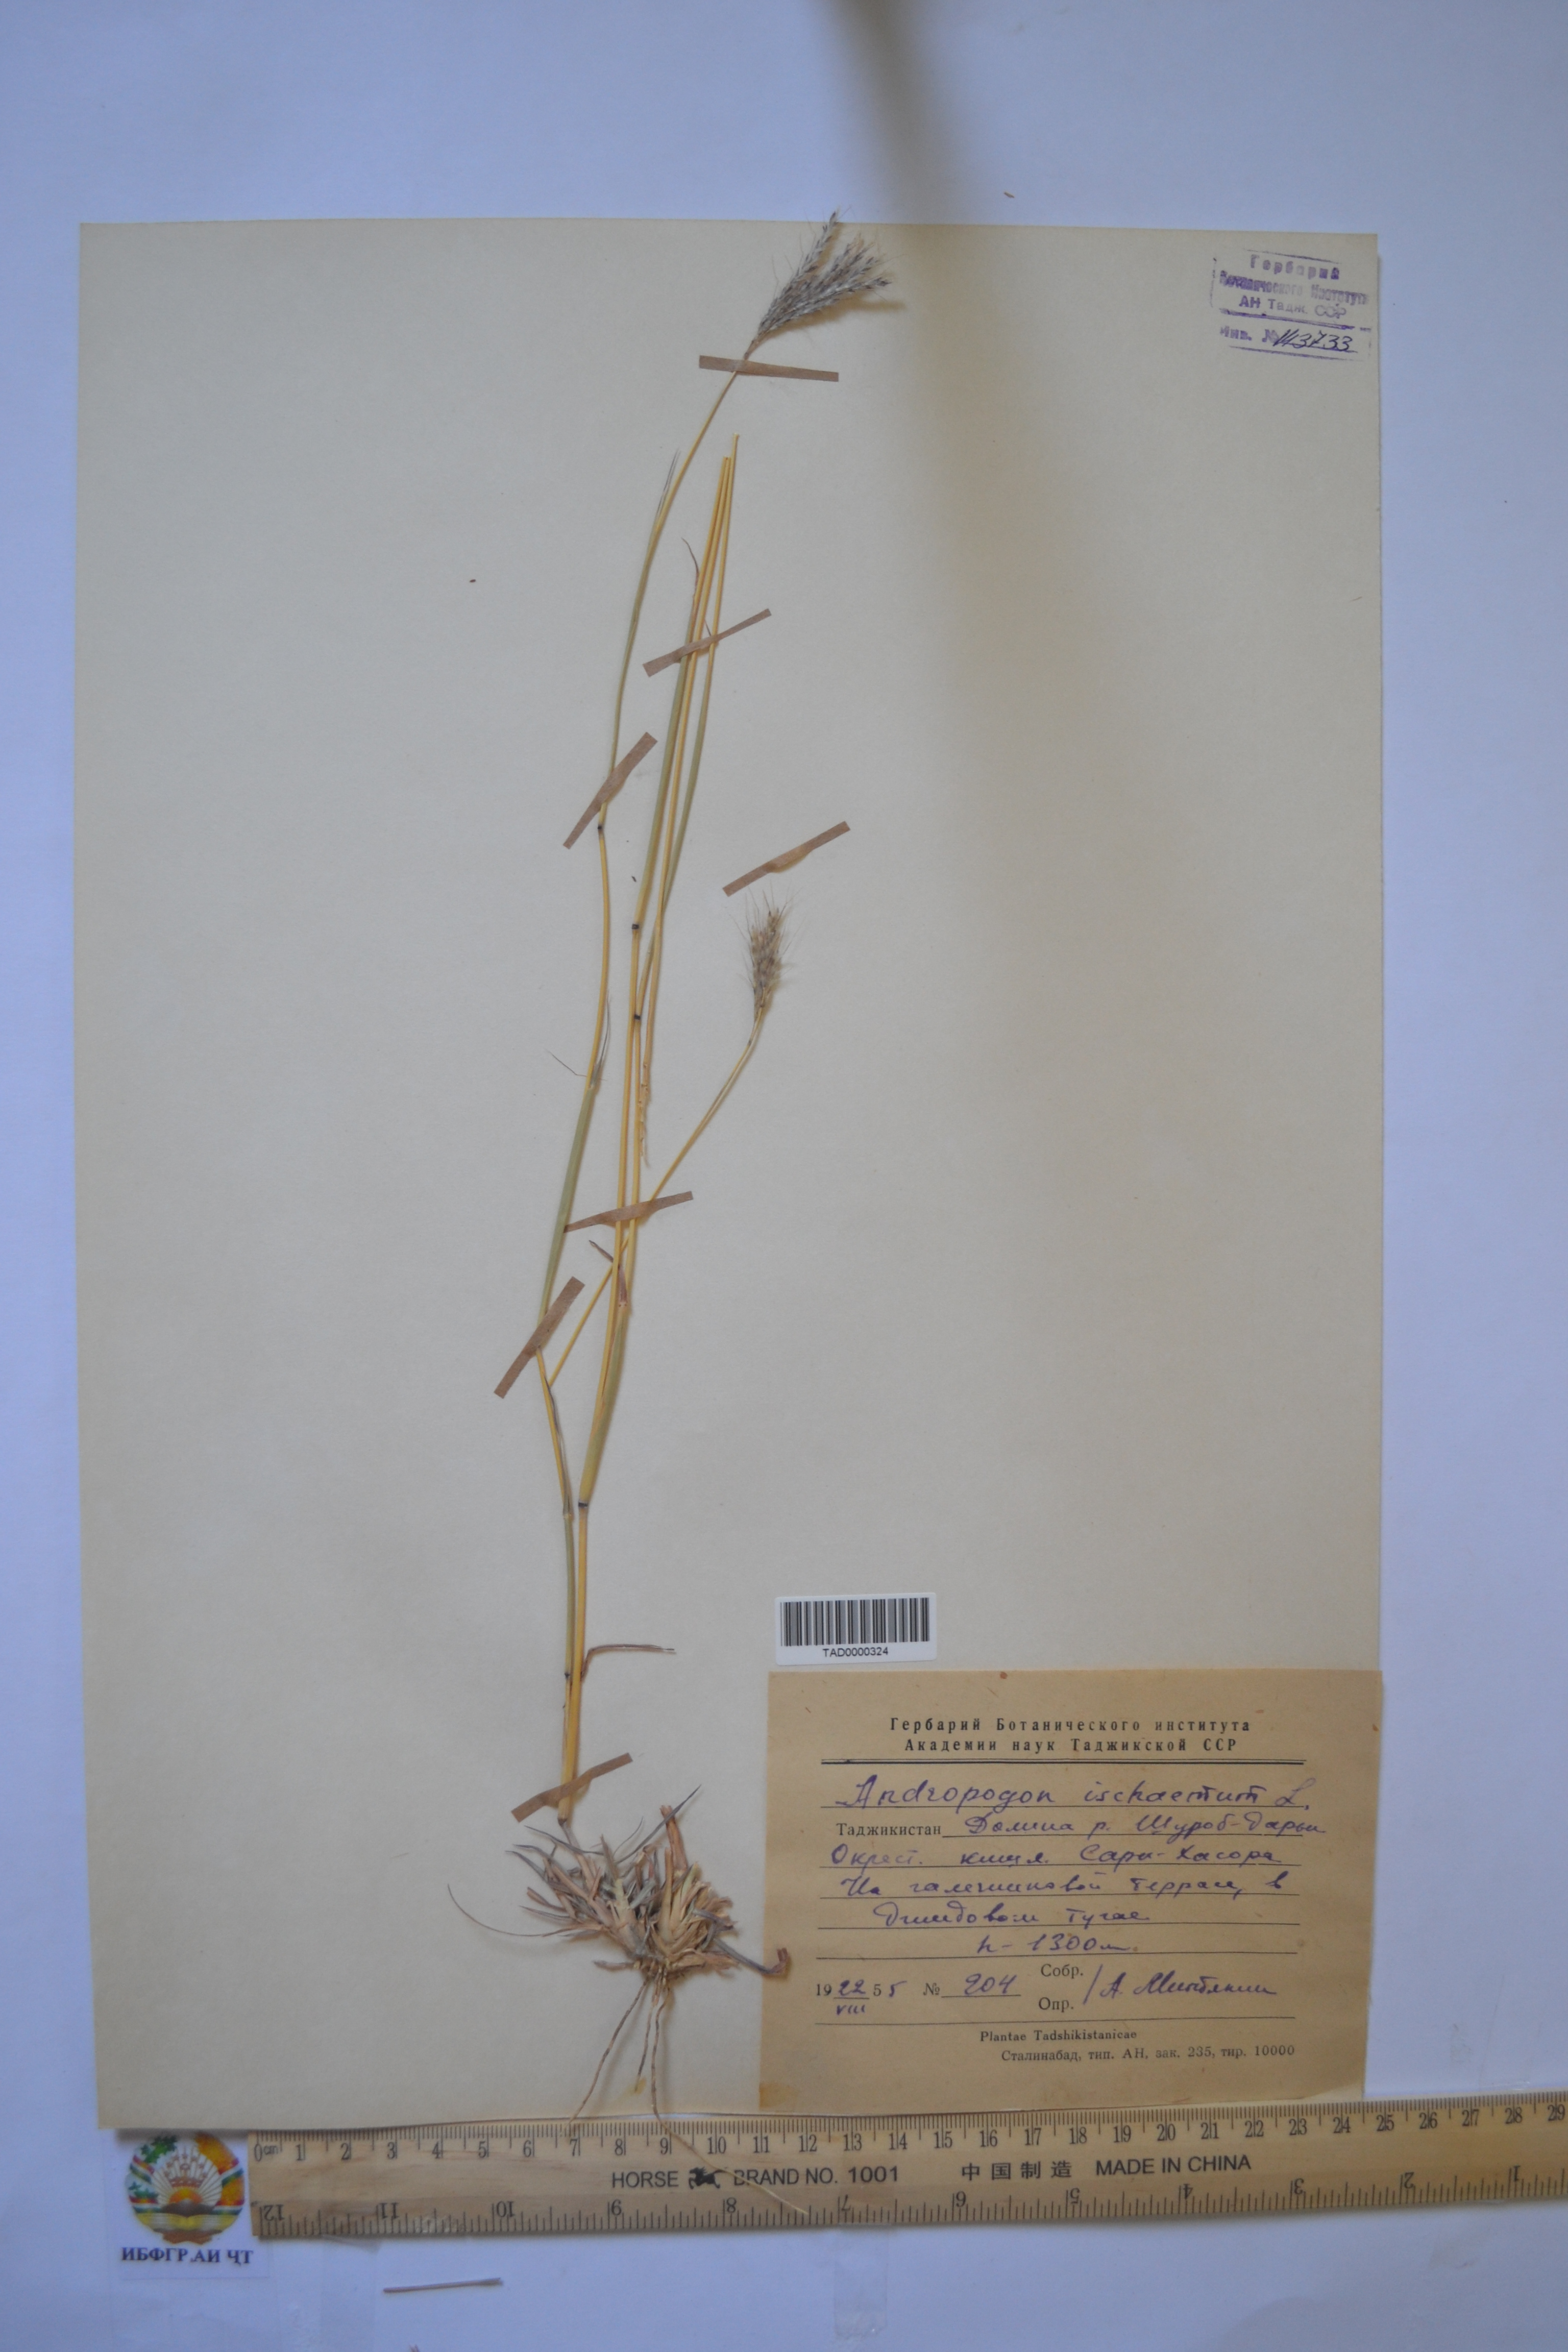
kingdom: Plantae
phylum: Tracheophyta
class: Liliopsida
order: Poales
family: Poaceae
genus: Bothriochloa
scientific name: Bothriochloa ischaemum
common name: Yellow bluestem
